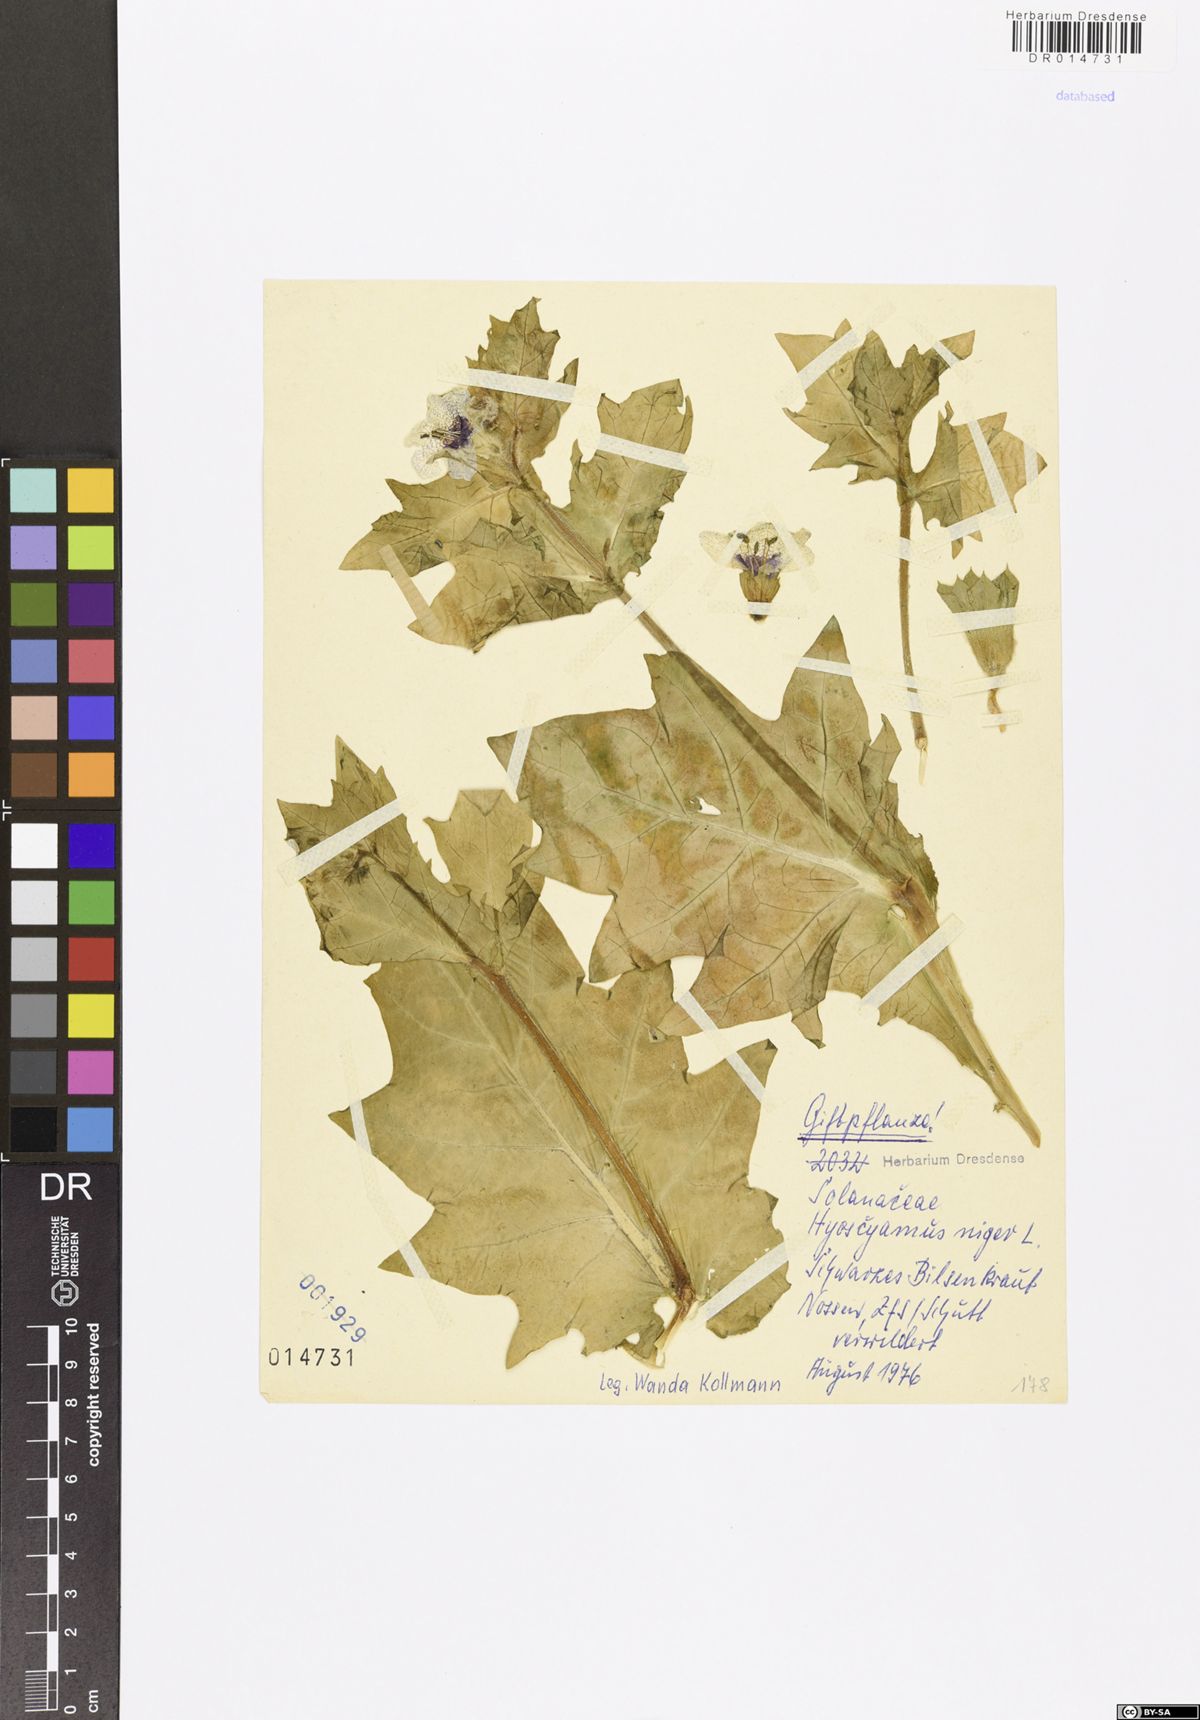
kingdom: Plantae
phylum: Tracheophyta
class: Magnoliopsida
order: Solanales
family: Solanaceae
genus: Hyoscyamus
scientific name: Hyoscyamus niger
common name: Henbane
